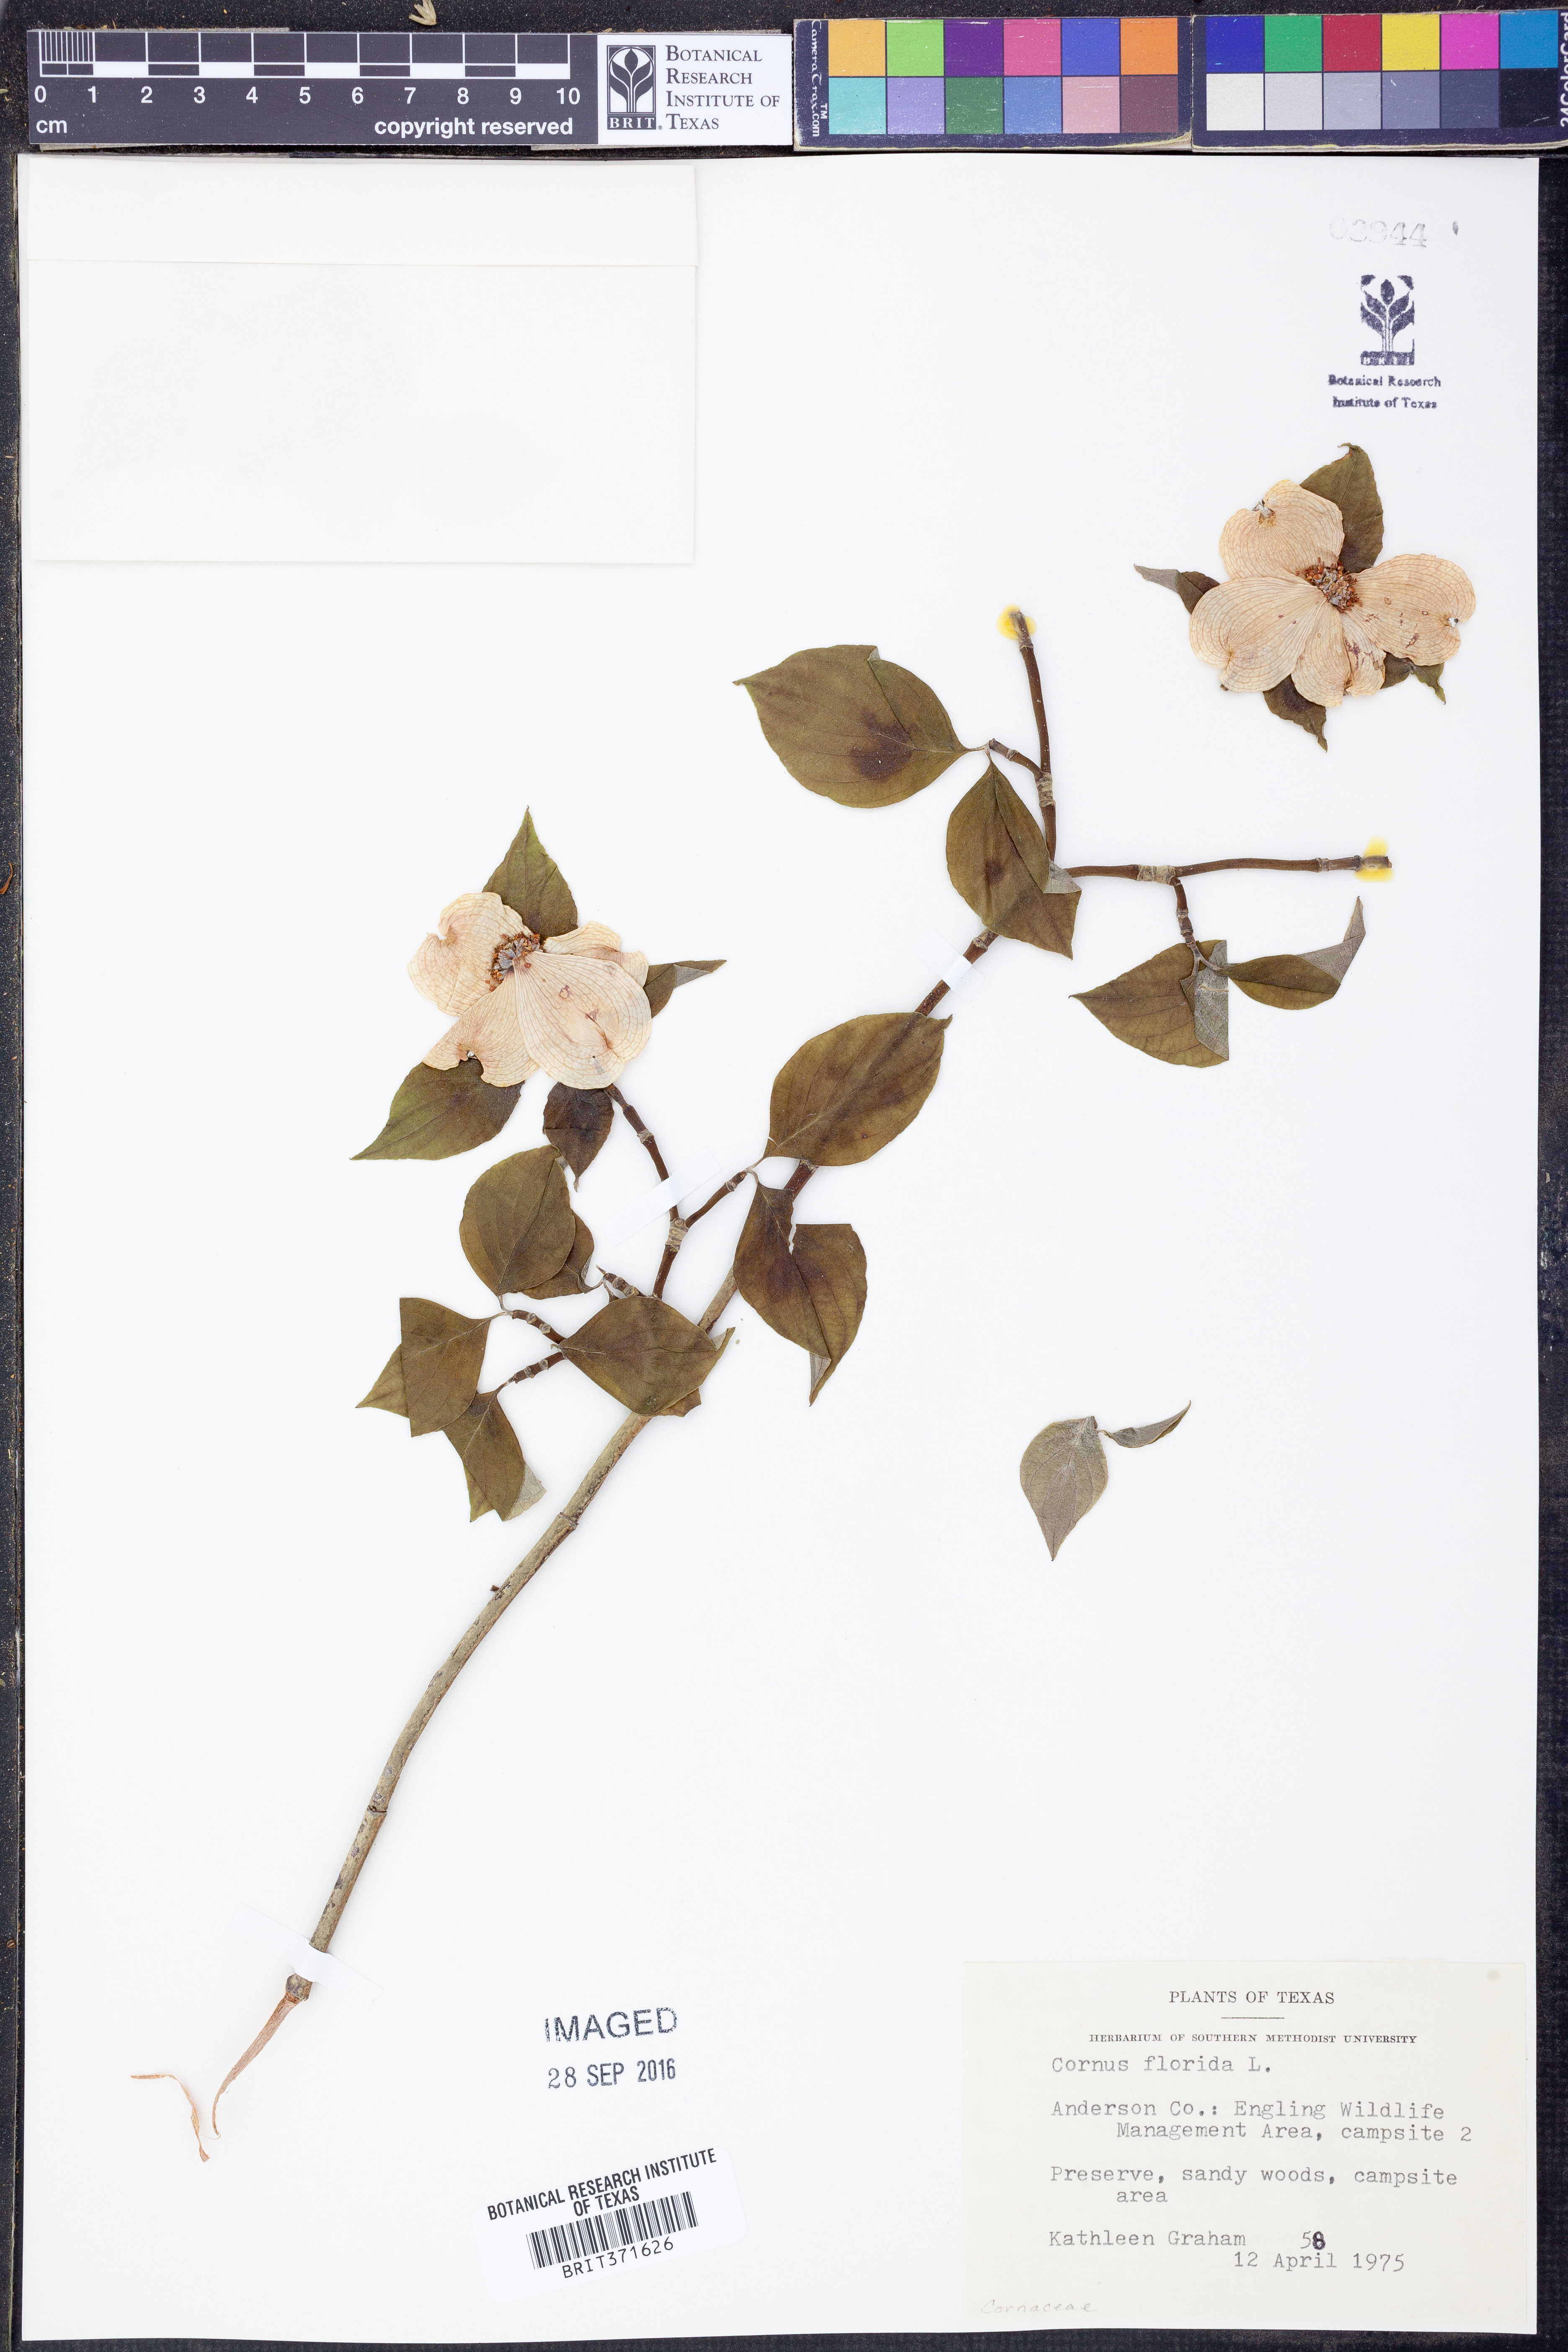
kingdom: Plantae
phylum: Tracheophyta
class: Magnoliopsida
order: Cornales
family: Cornaceae
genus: Cornus
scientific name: Cornus florida
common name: Flowering dogwood
